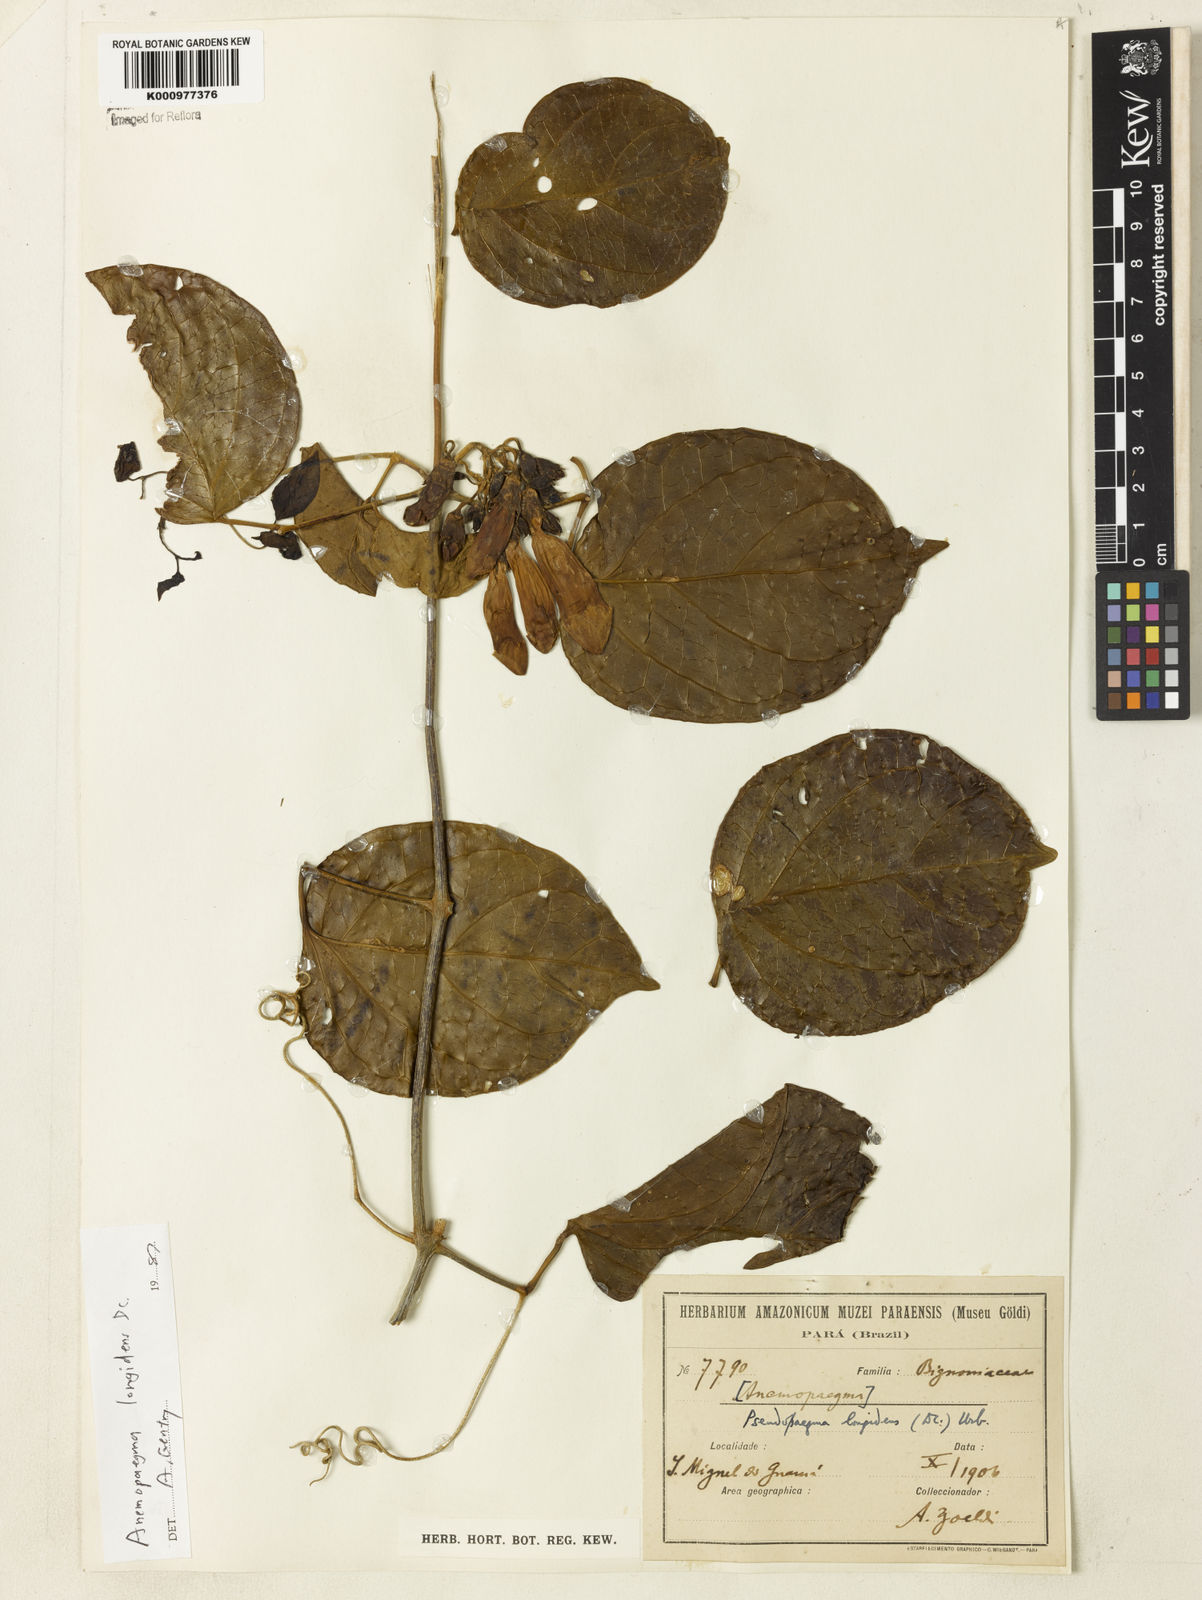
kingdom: Plantae
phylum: Tracheophyta
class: Magnoliopsida
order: Lamiales
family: Bignoniaceae
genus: Anemopaegma
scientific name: Anemopaegma longidens
